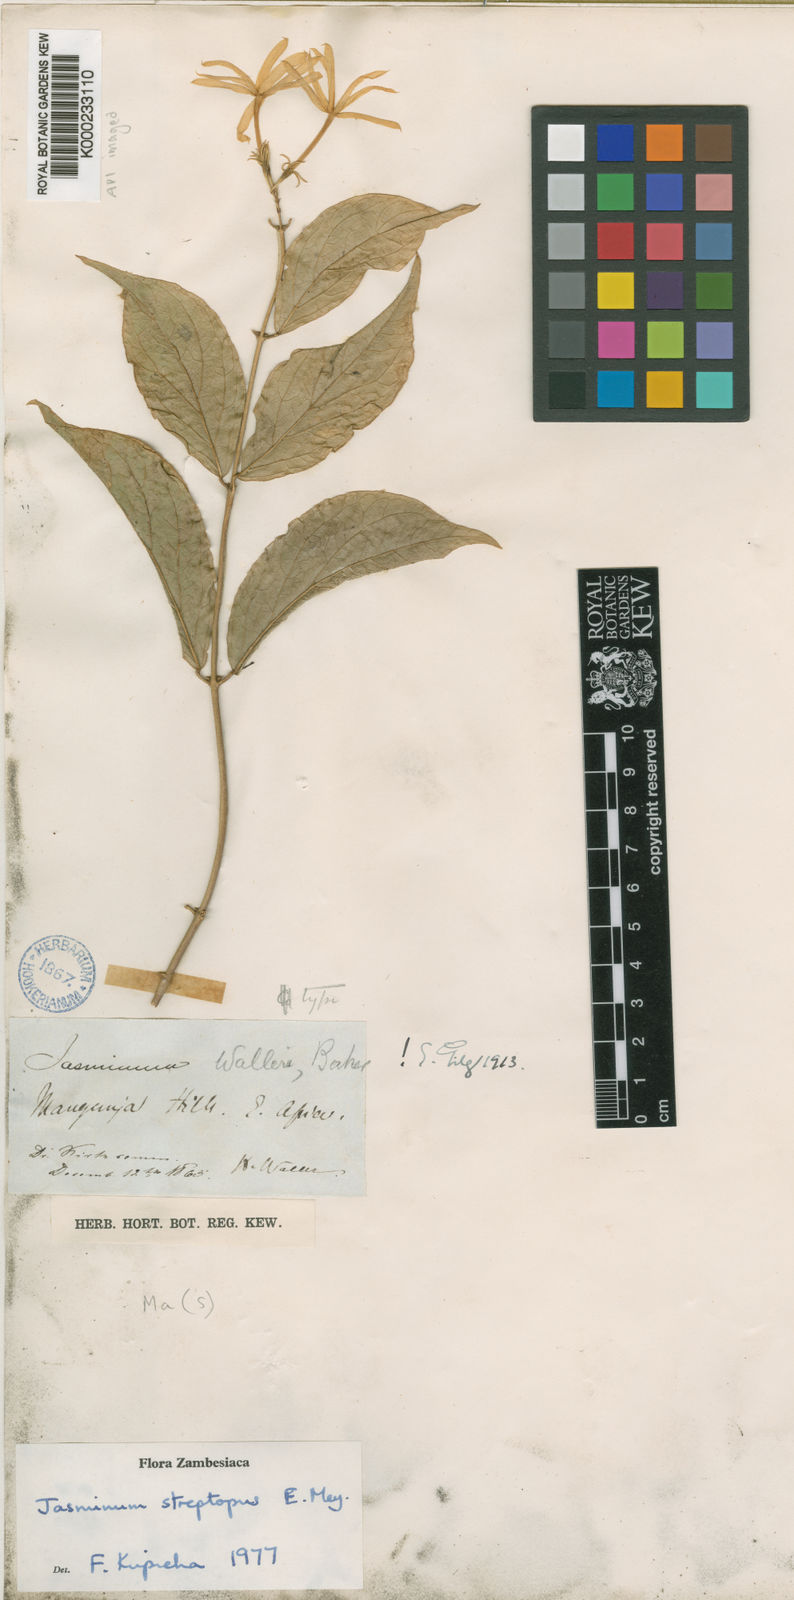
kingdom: Plantae
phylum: Tracheophyta
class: Magnoliopsida
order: Lamiales
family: Oleaceae
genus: Jasminum
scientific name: Jasminum streptopus
